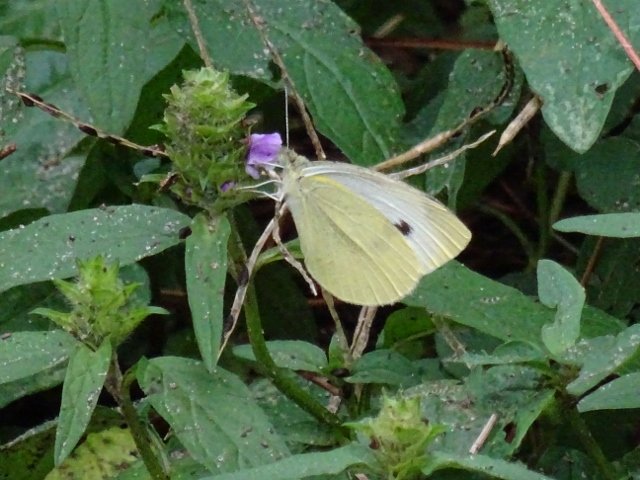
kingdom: Animalia
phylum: Arthropoda
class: Insecta
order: Lepidoptera
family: Pieridae
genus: Pieris
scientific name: Pieris rapae
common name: Cabbage White
